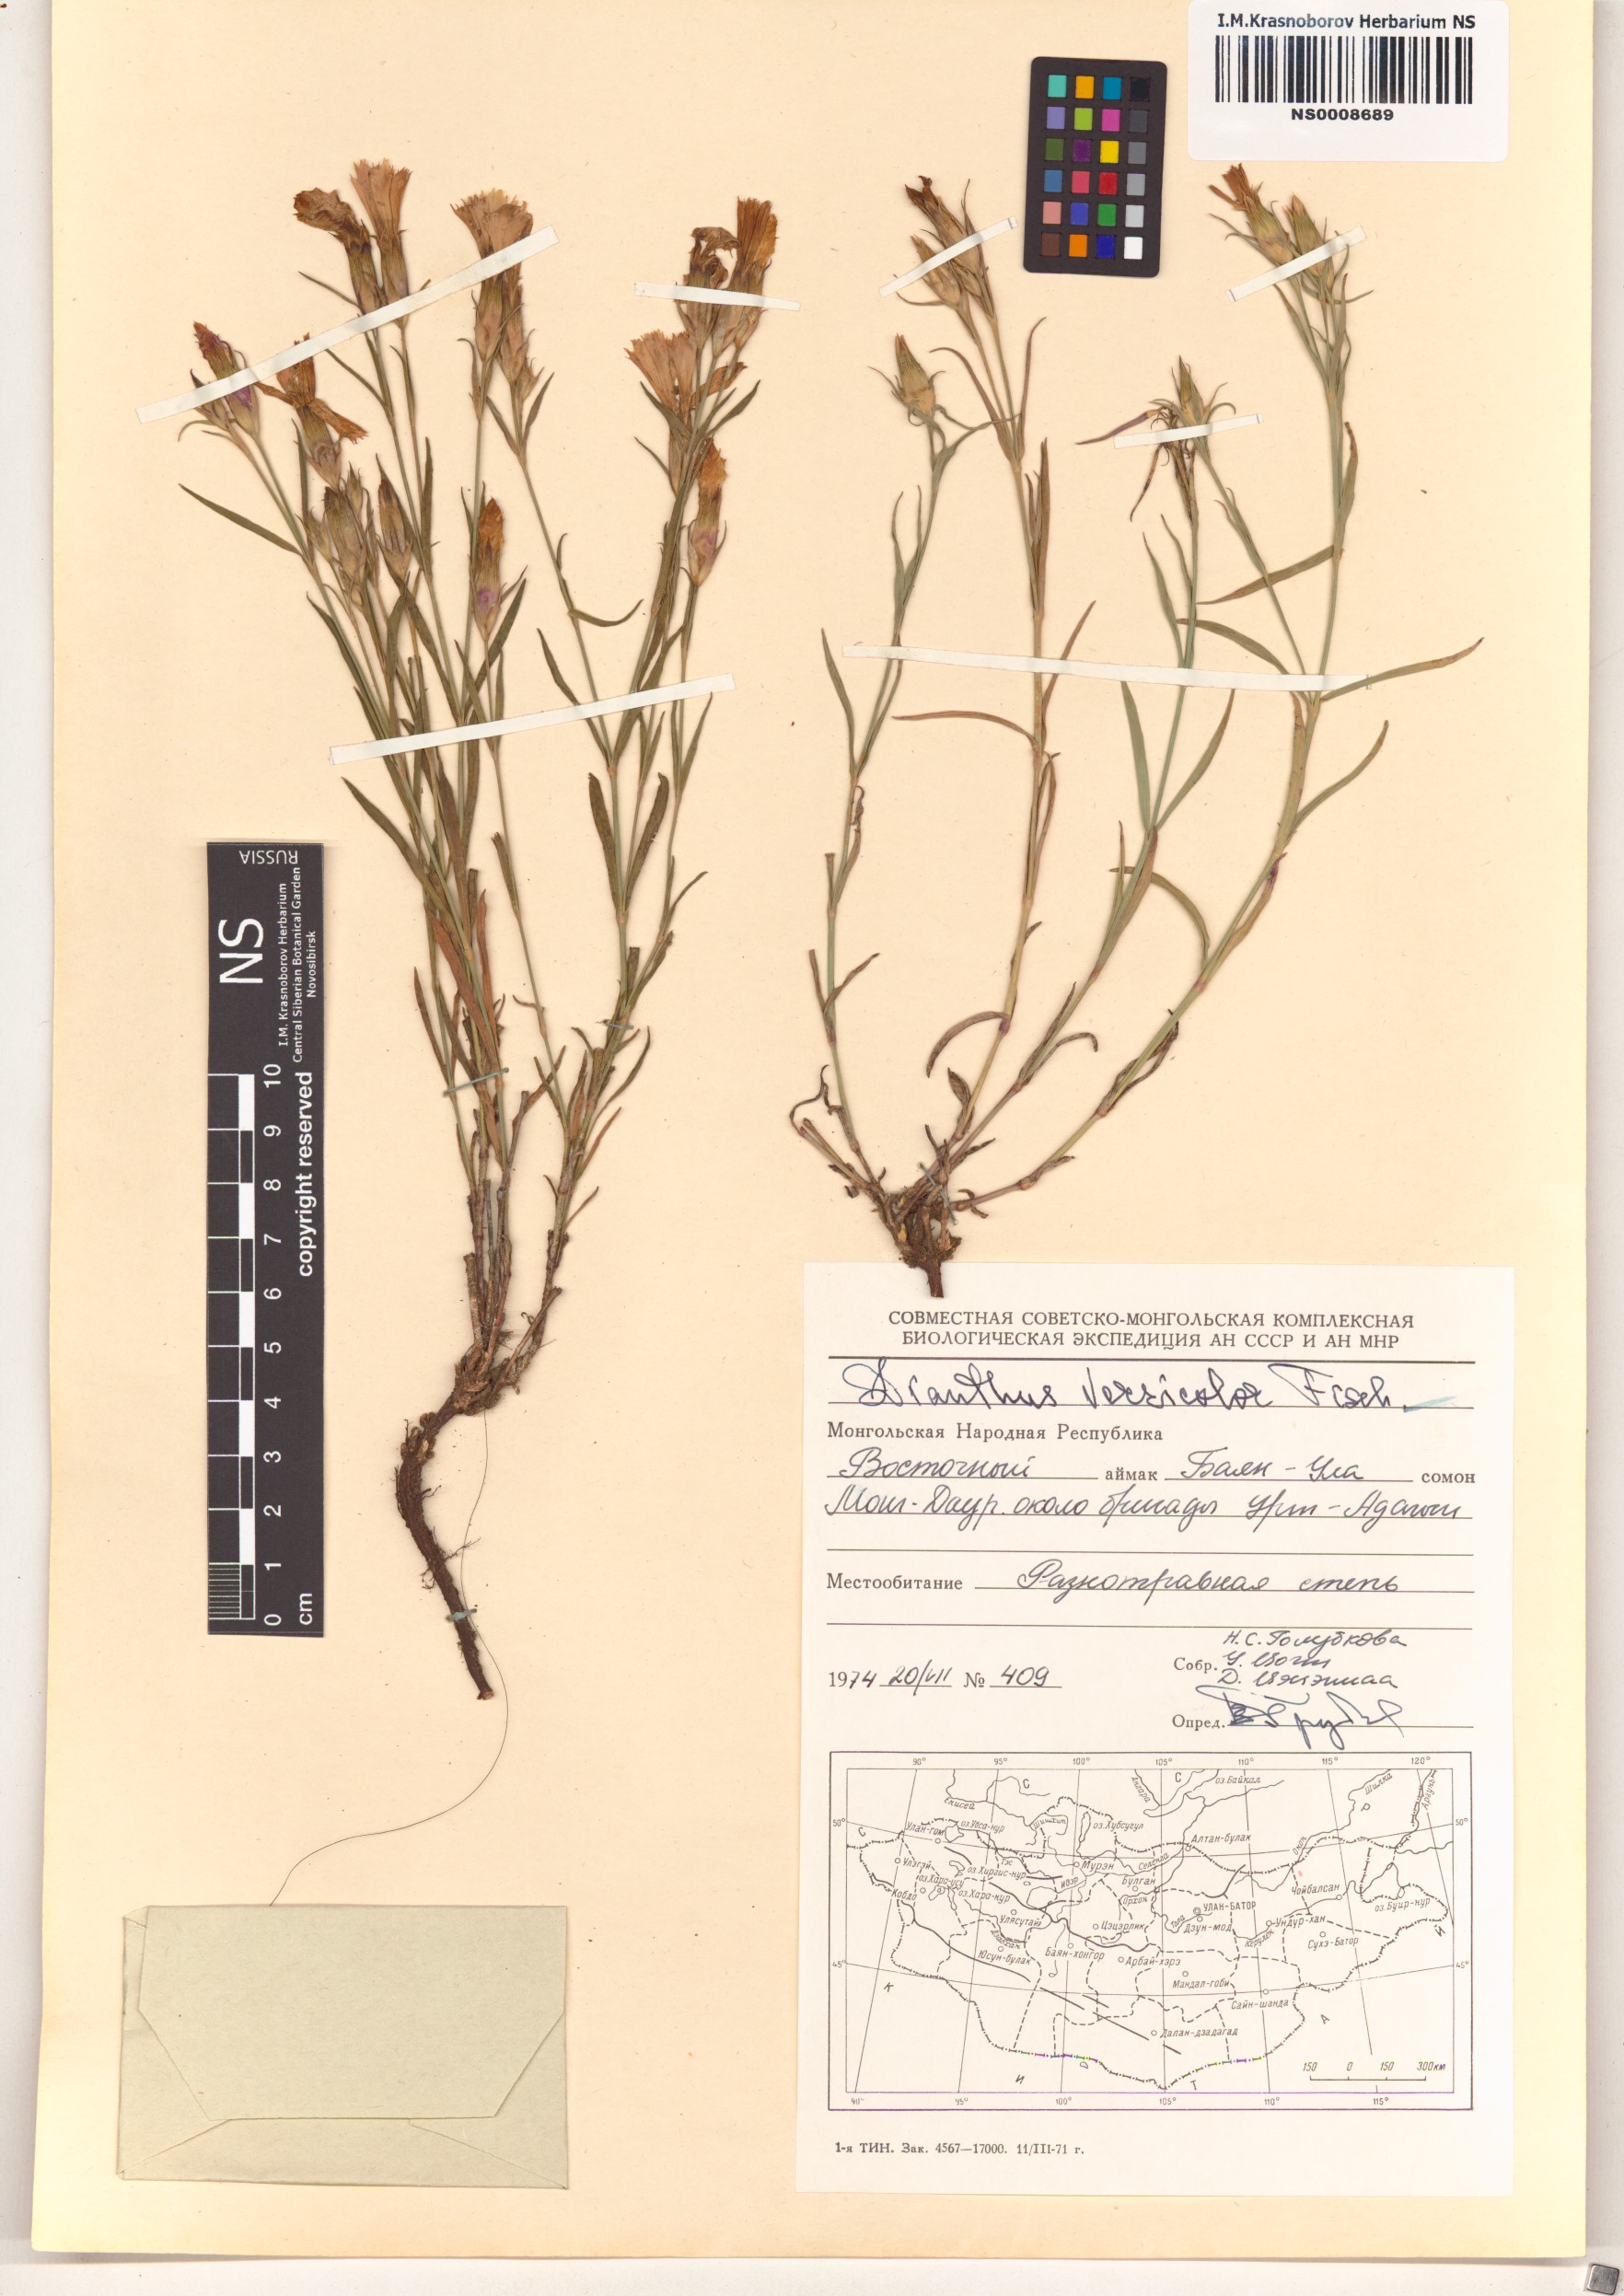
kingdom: Plantae
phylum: Tracheophyta
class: Magnoliopsida
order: Caryophyllales
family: Caryophyllaceae
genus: Dianthus
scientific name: Dianthus chinensis
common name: Rainbow pink
